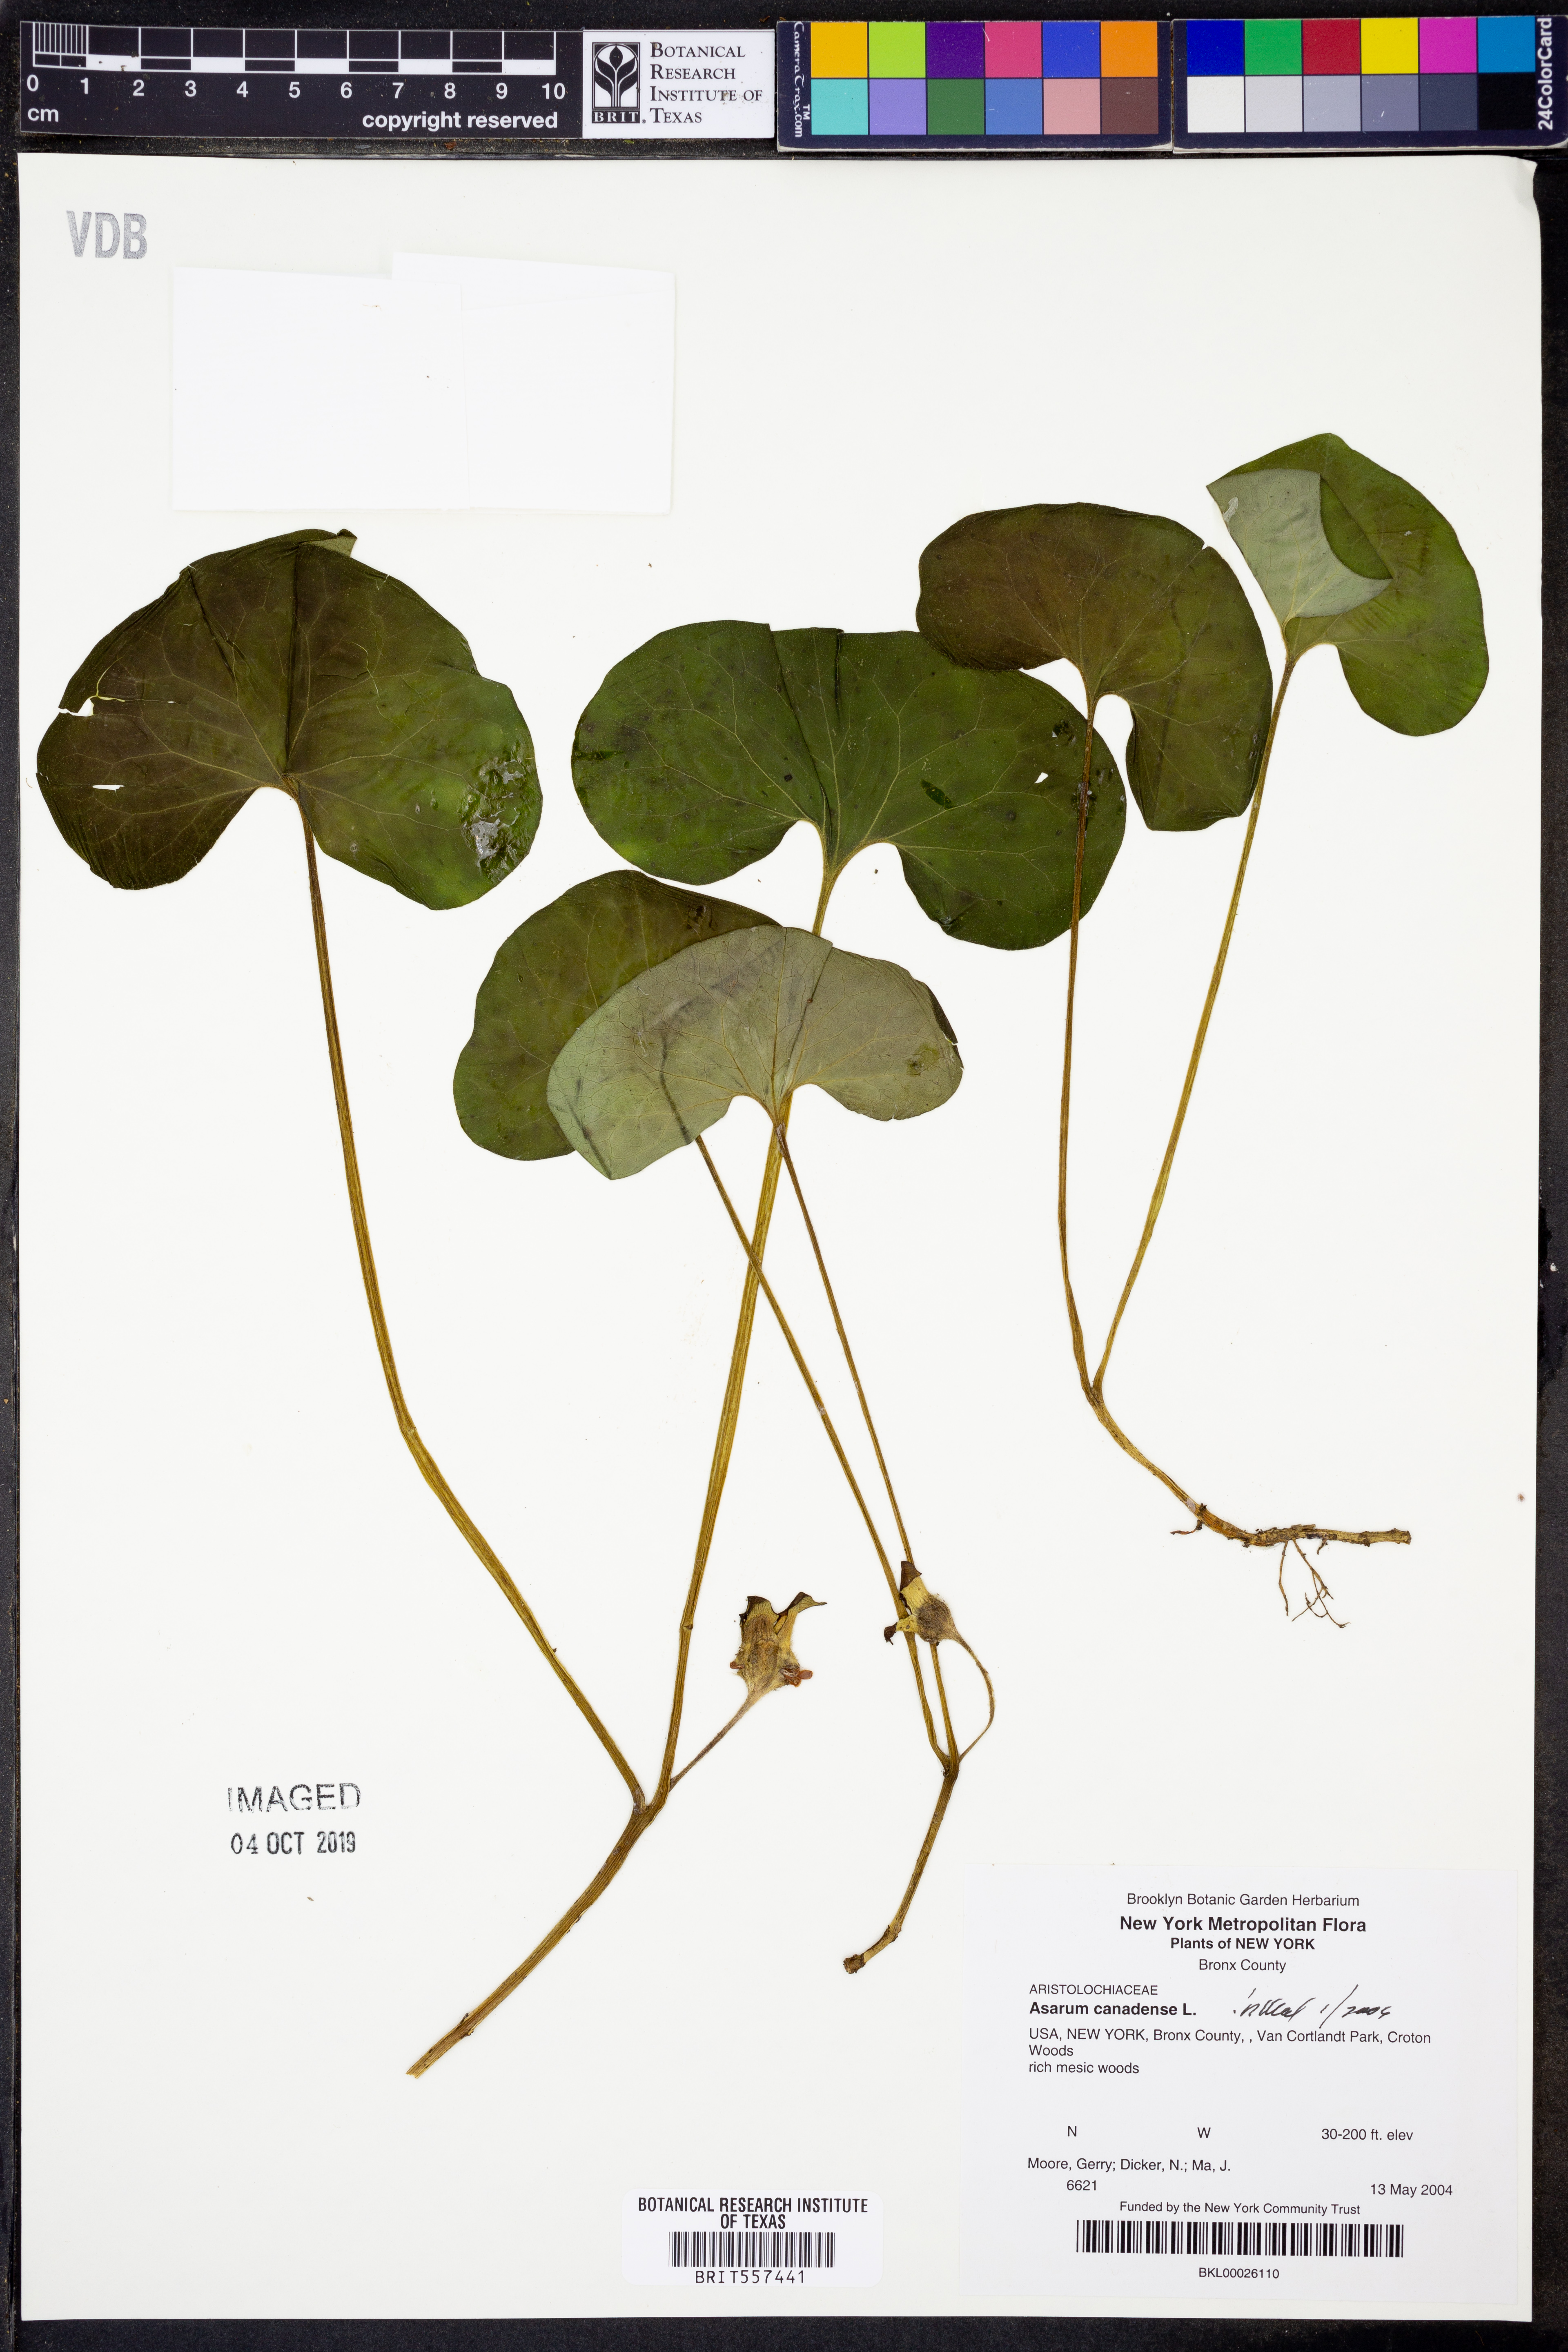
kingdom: Plantae
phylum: Tracheophyta
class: Magnoliopsida
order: Piperales
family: Aristolochiaceae
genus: Asarum
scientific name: Asarum canadense
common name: Wild ginger
